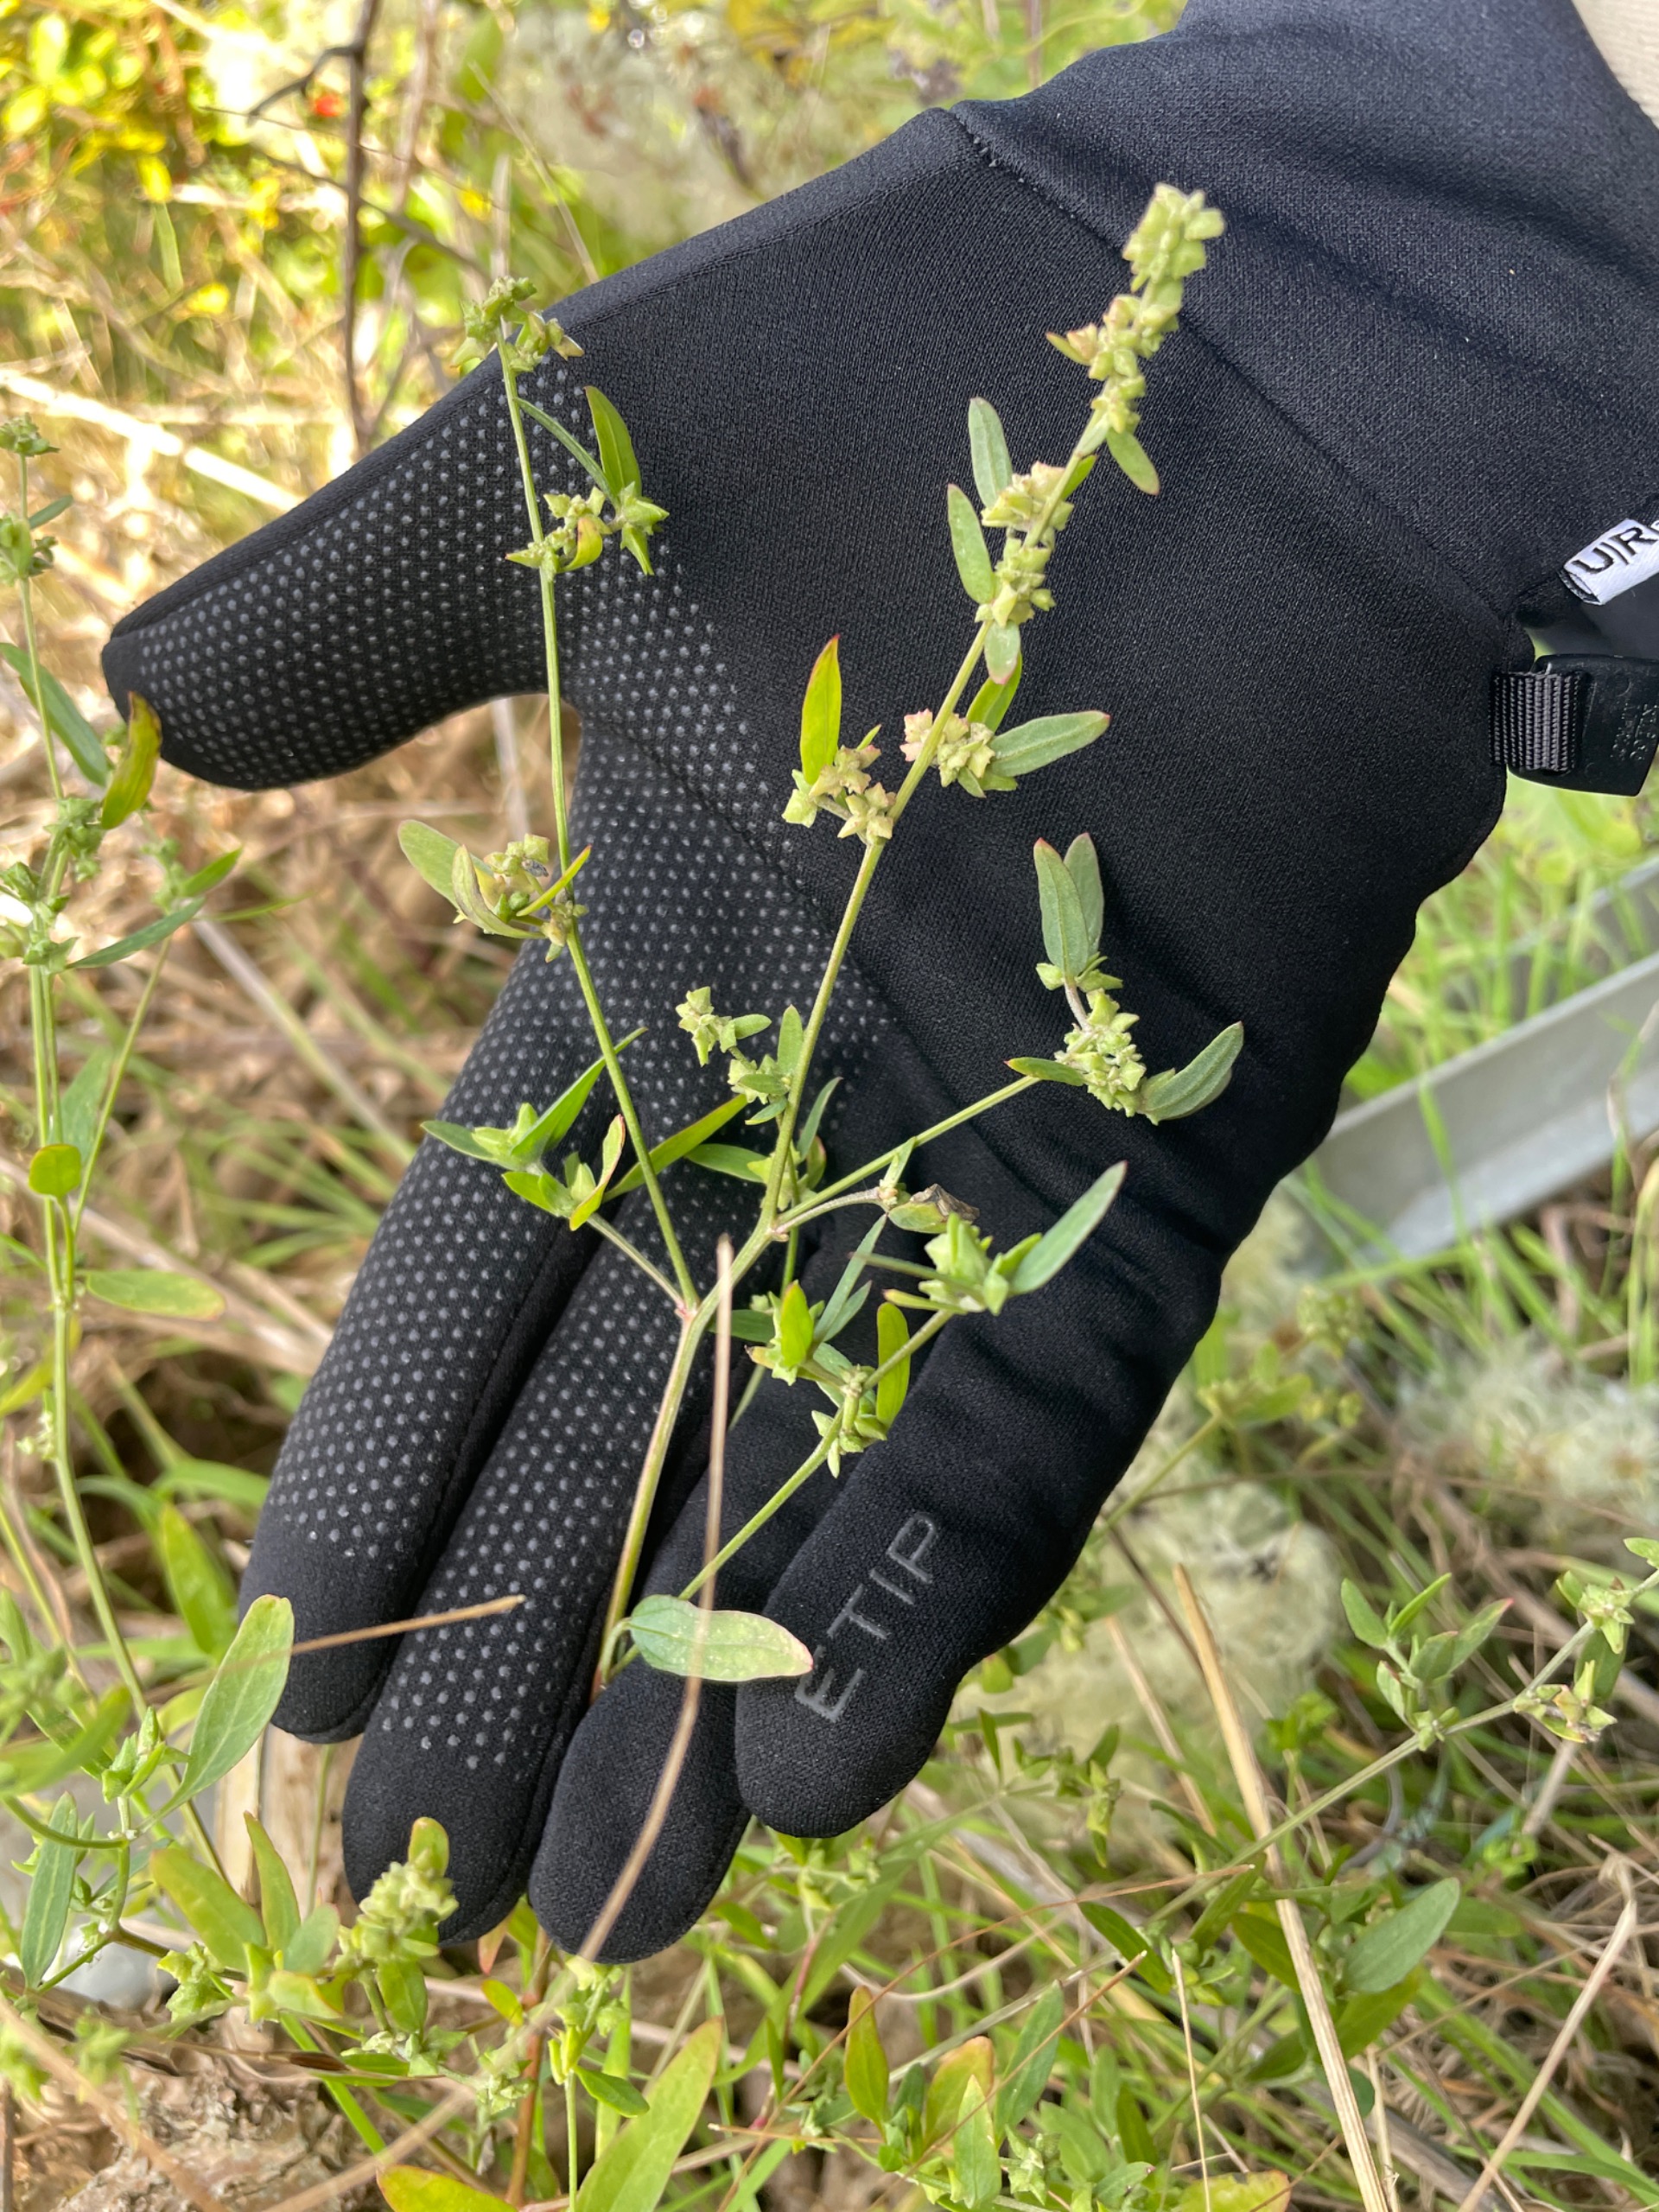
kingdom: Plantae
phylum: Tracheophyta
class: Magnoliopsida
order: Caryophyllales
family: Amaranthaceae
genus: Atriplex
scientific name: Atriplex patula
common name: Svine-mælde
